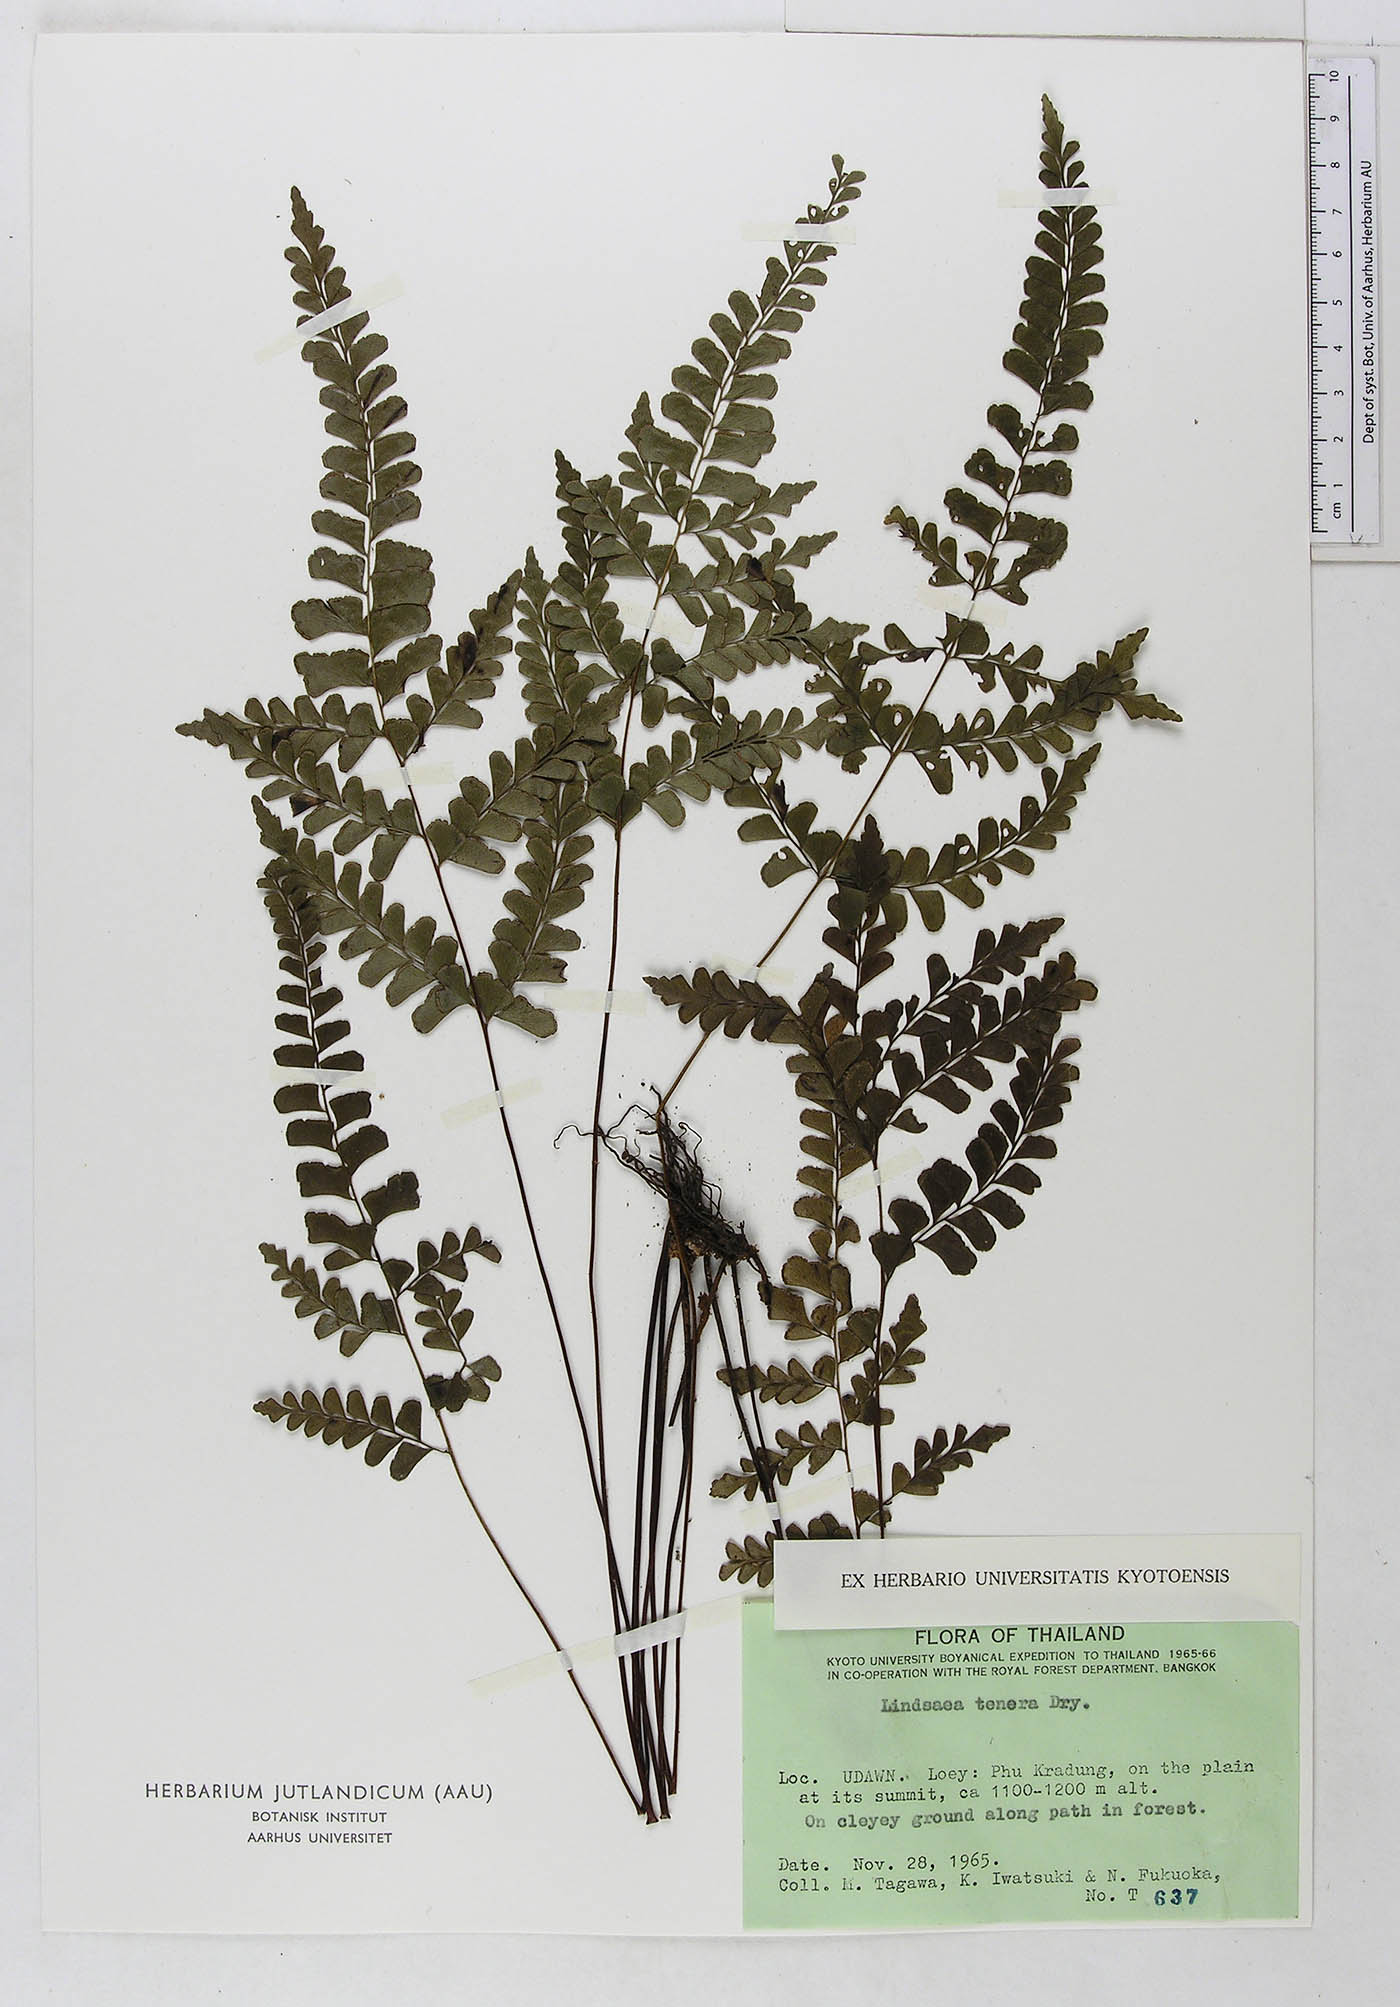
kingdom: Plantae
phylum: Tracheophyta
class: Polypodiopsida
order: Polypodiales
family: Lindsaeaceae
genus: Lindsaea
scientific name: Lindsaea tenera
